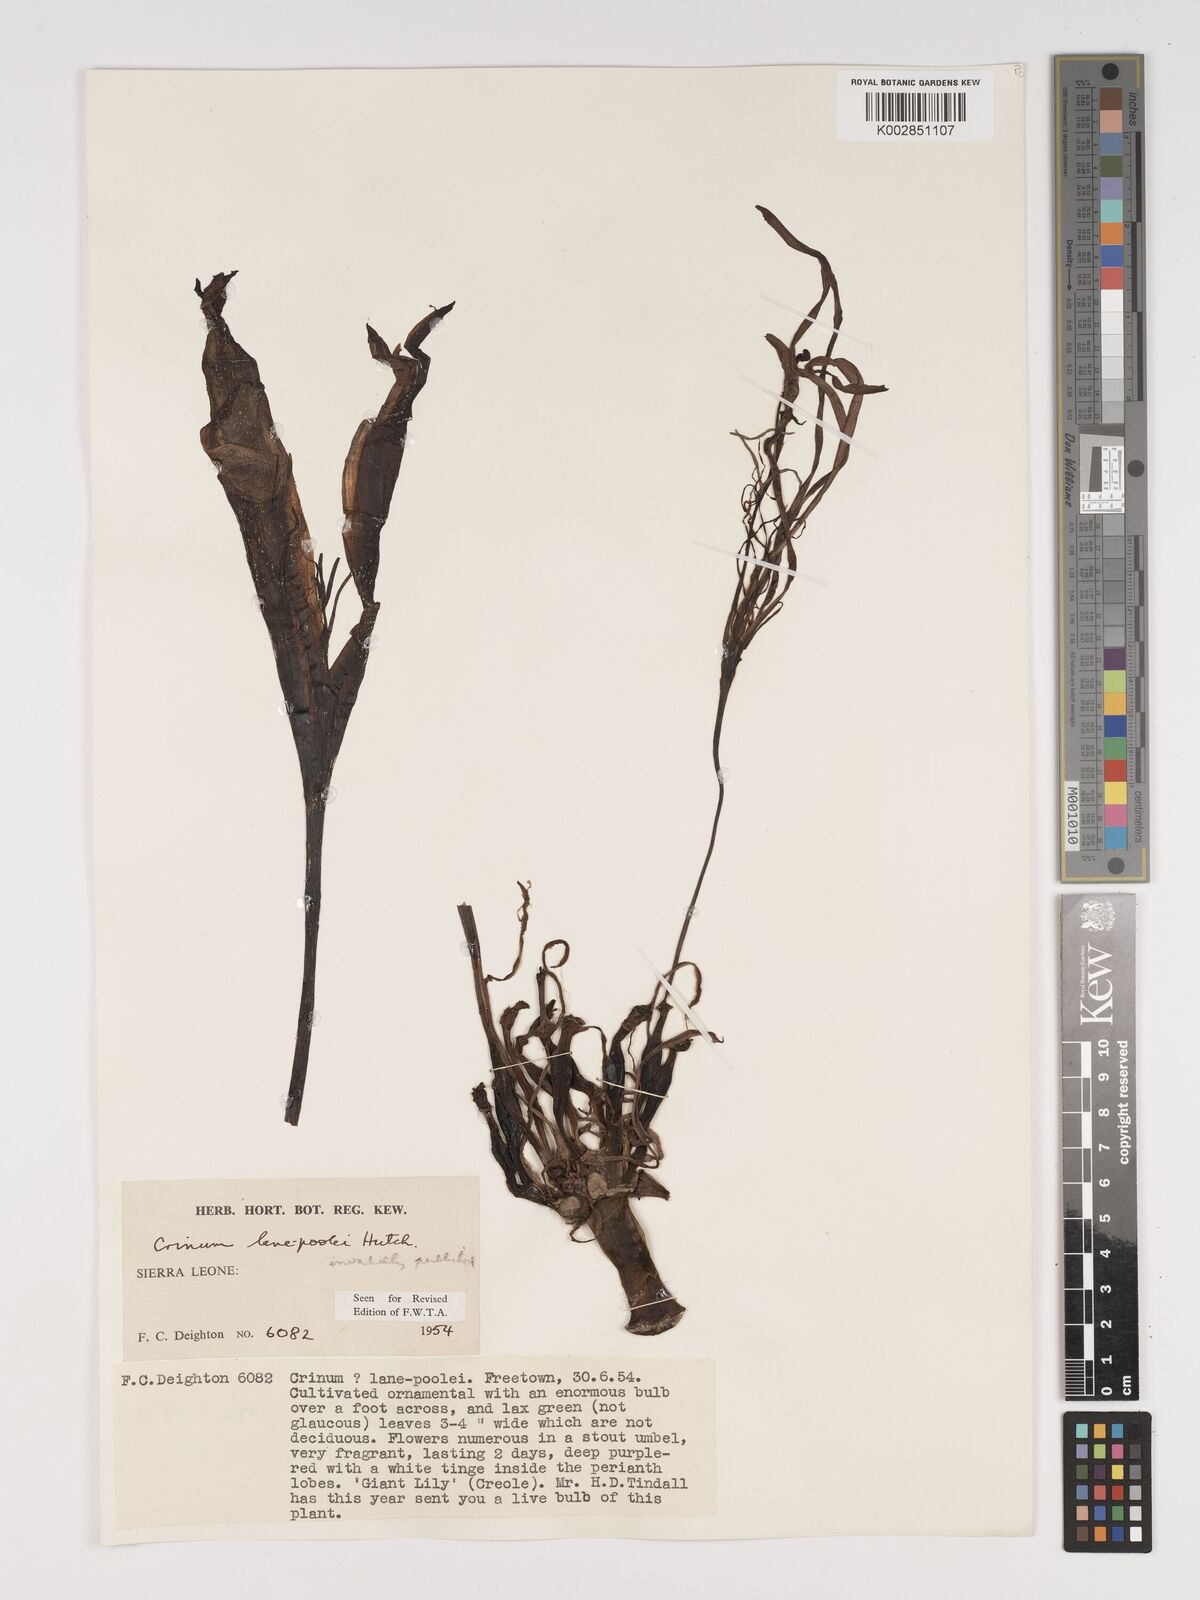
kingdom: Plantae
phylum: Tracheophyta
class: Liliopsida
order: Asparagales
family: Amaryllidaceae
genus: Crinum
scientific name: Crinum
